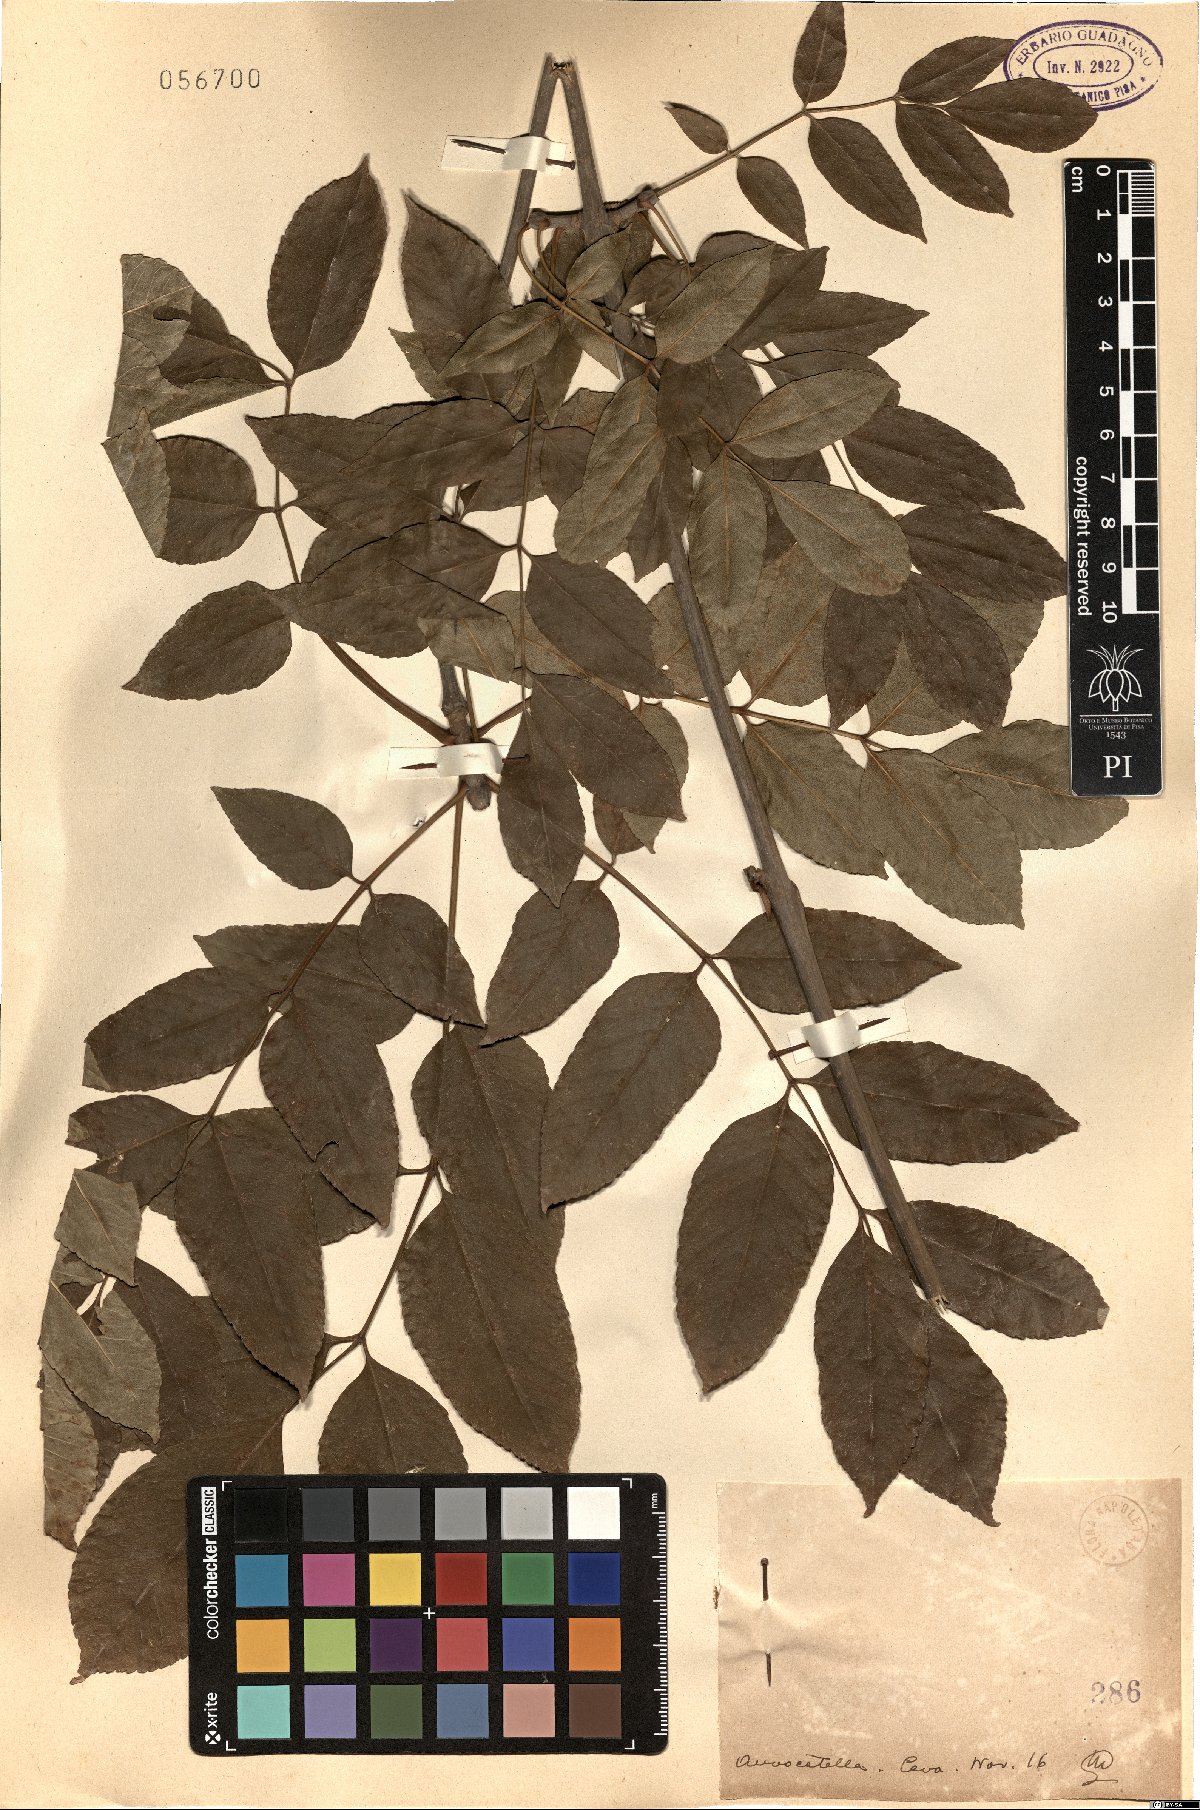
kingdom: Plantae
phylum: Tracheophyta
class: Magnoliopsida
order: Lamiales
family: Oleaceae
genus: Fraxinus
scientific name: Fraxinus
